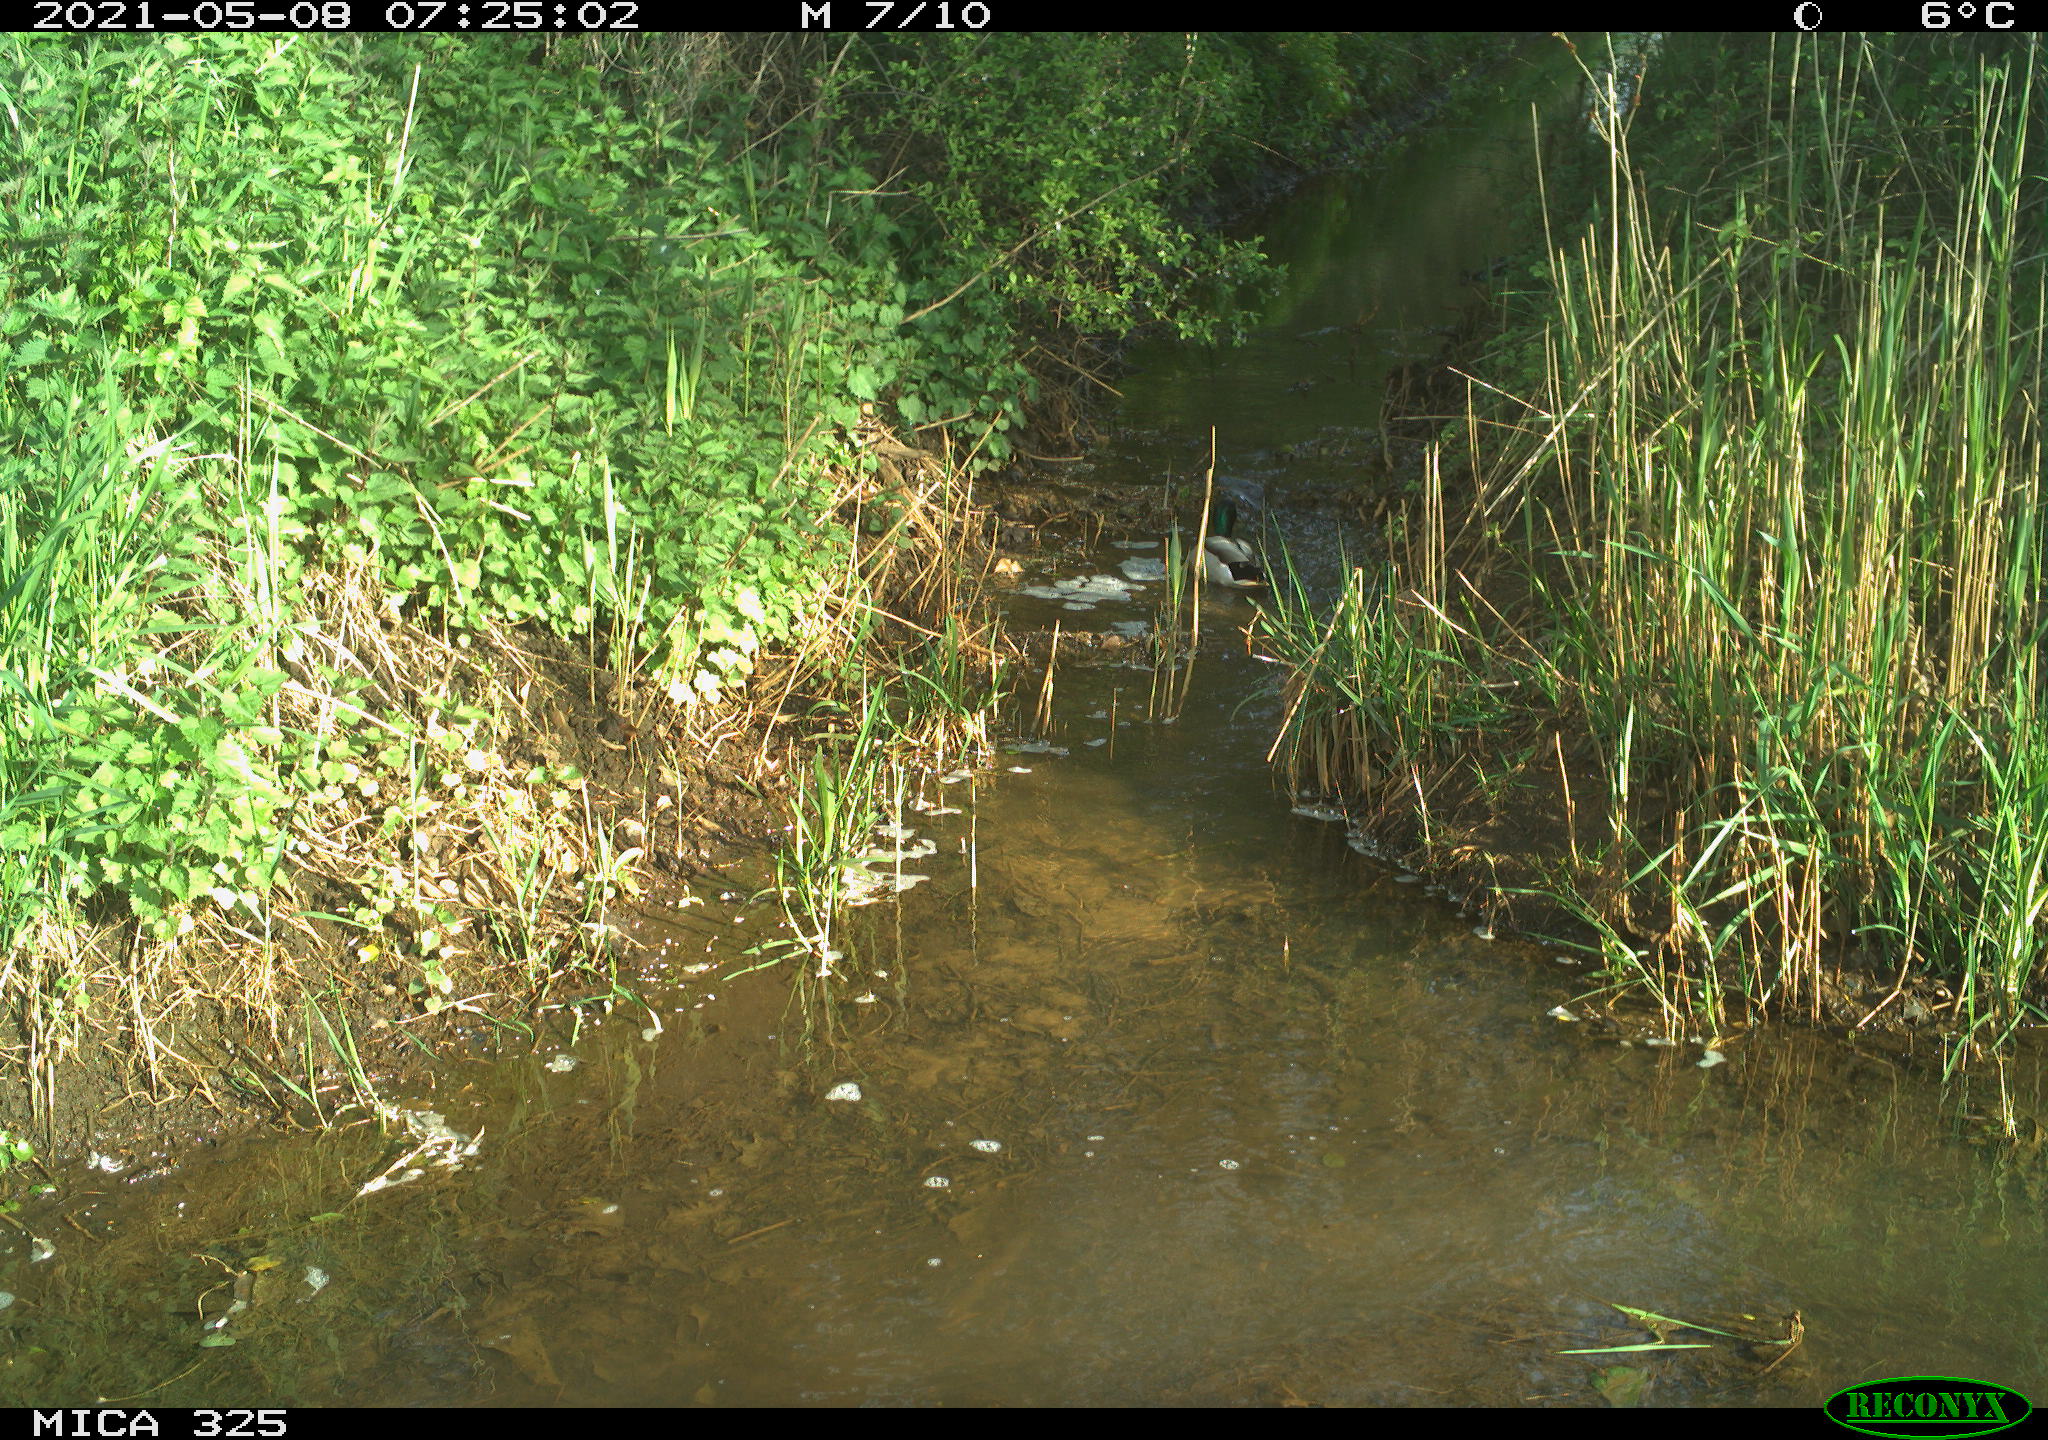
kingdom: Animalia
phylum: Chordata
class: Aves
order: Anseriformes
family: Anatidae
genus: Anas
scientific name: Anas platyrhynchos
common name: Mallard
